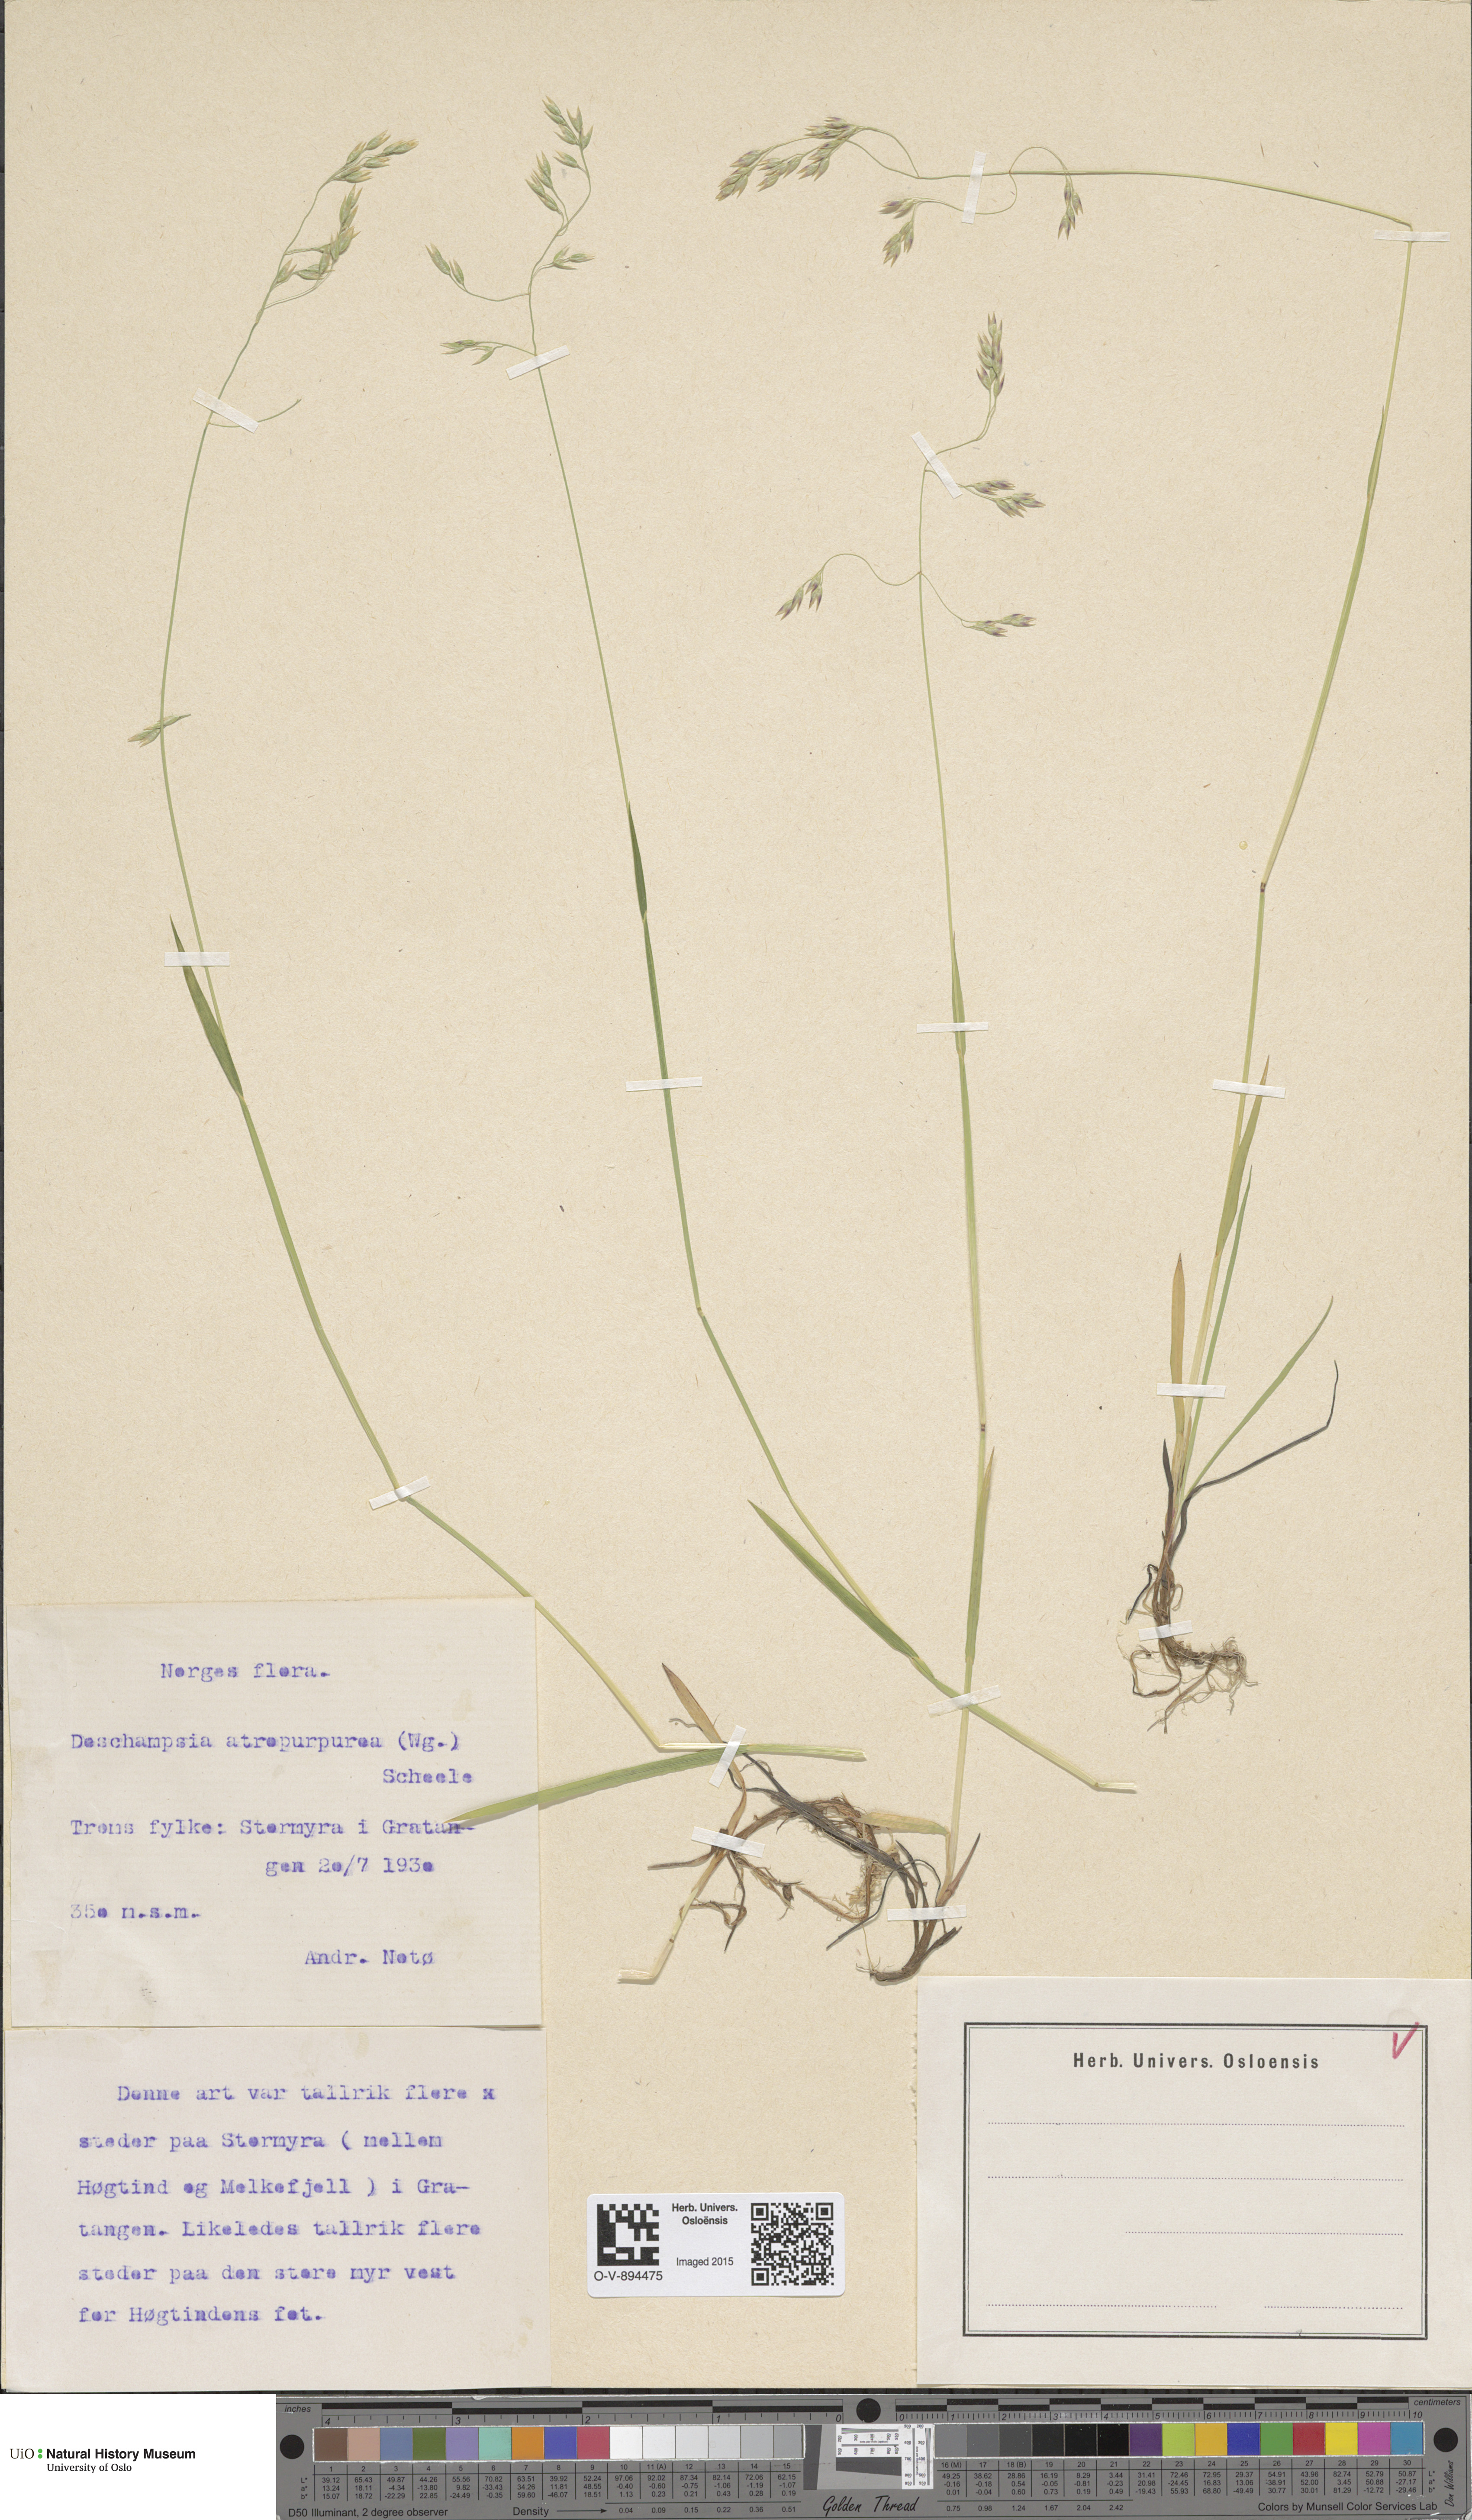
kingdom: Plantae
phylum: Tracheophyta
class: Liliopsida
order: Poales
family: Poaceae
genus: Vahlodea
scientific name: Vahlodea atropurpurea
